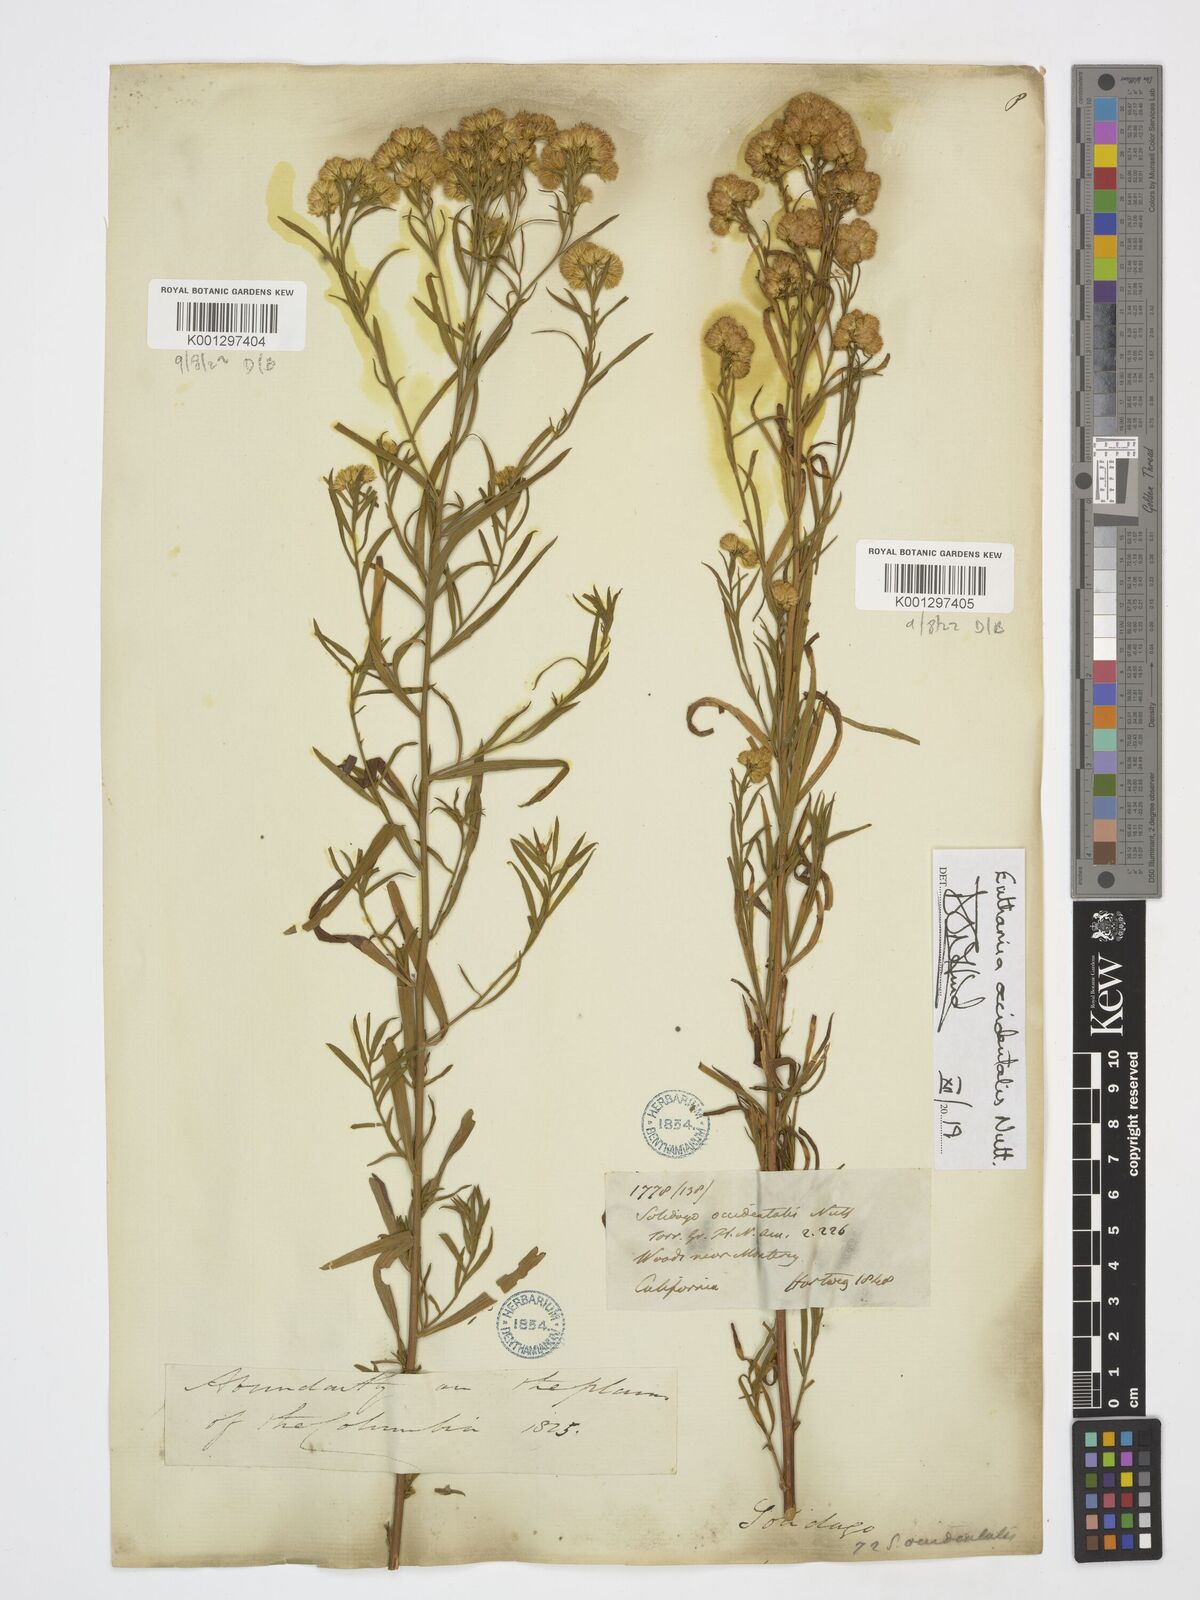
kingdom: Plantae
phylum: Tracheophyta
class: Magnoliopsida
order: Asterales
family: Asteraceae
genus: Euthamia
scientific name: Euthamia occidentalis
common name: Western goldentop
